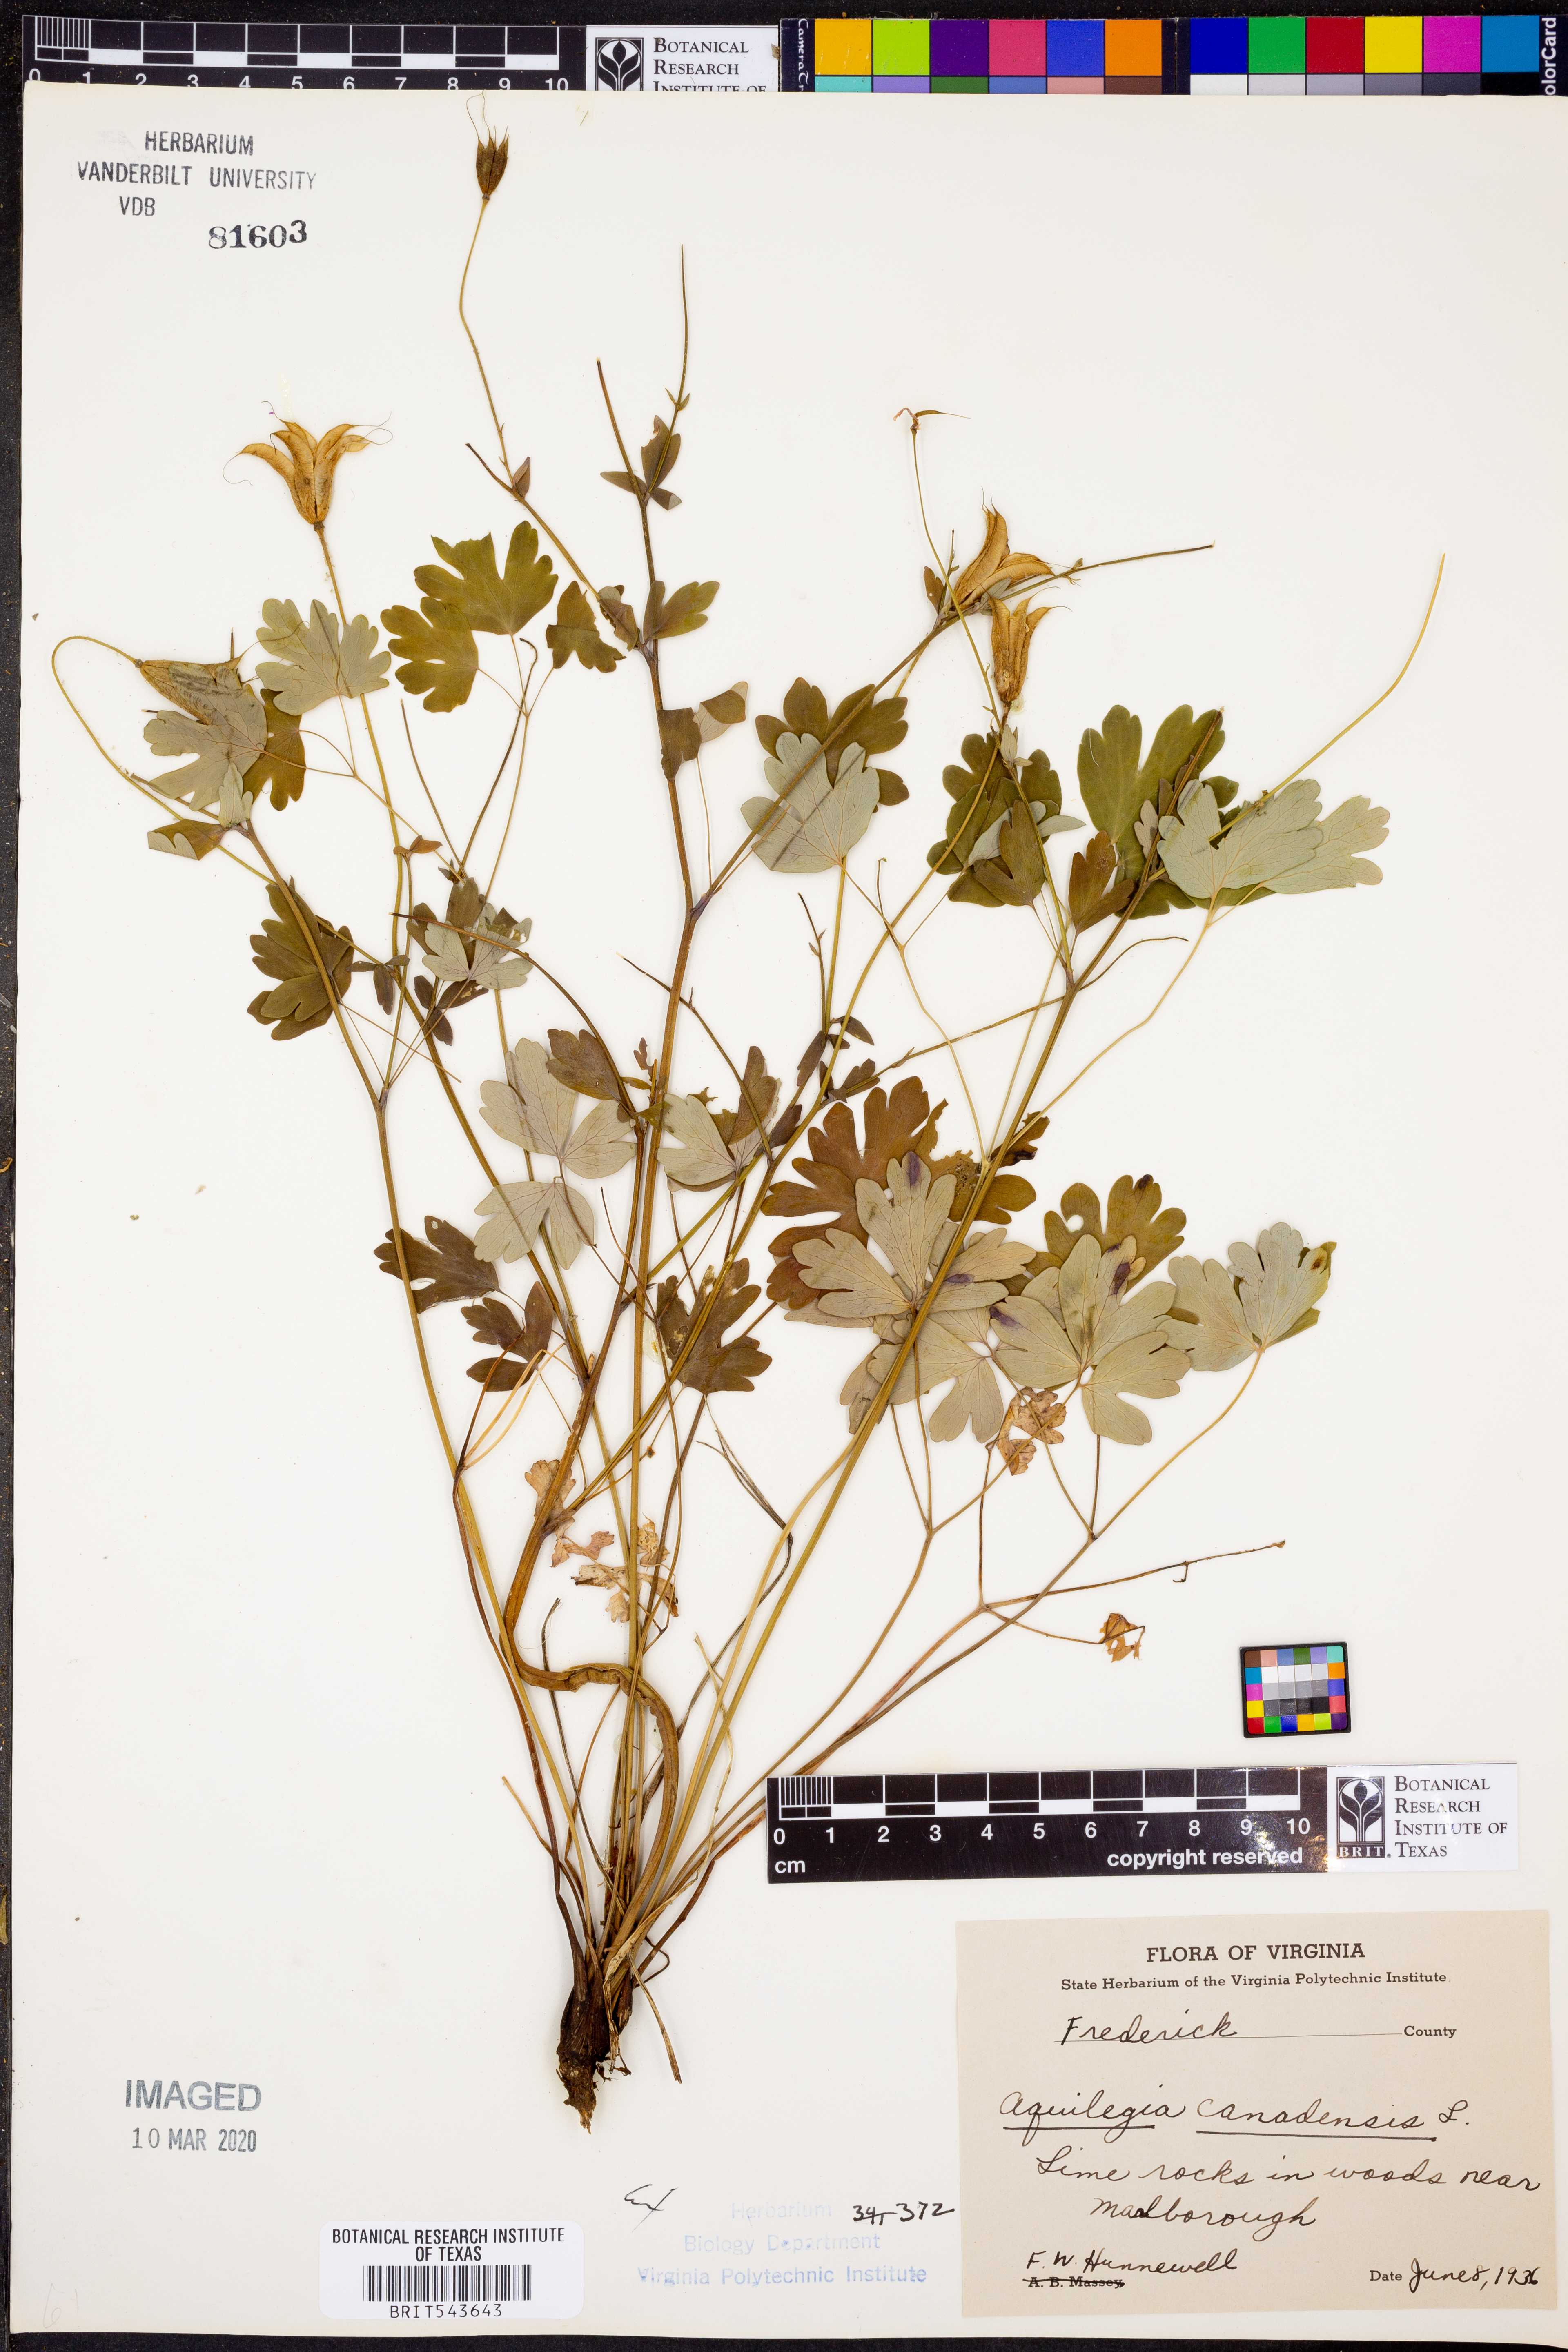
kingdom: Plantae
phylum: Tracheophyta
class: Magnoliopsida
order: Ranunculales
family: Ranunculaceae
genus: Aquilegia
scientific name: Aquilegia canadensis
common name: American columbine
